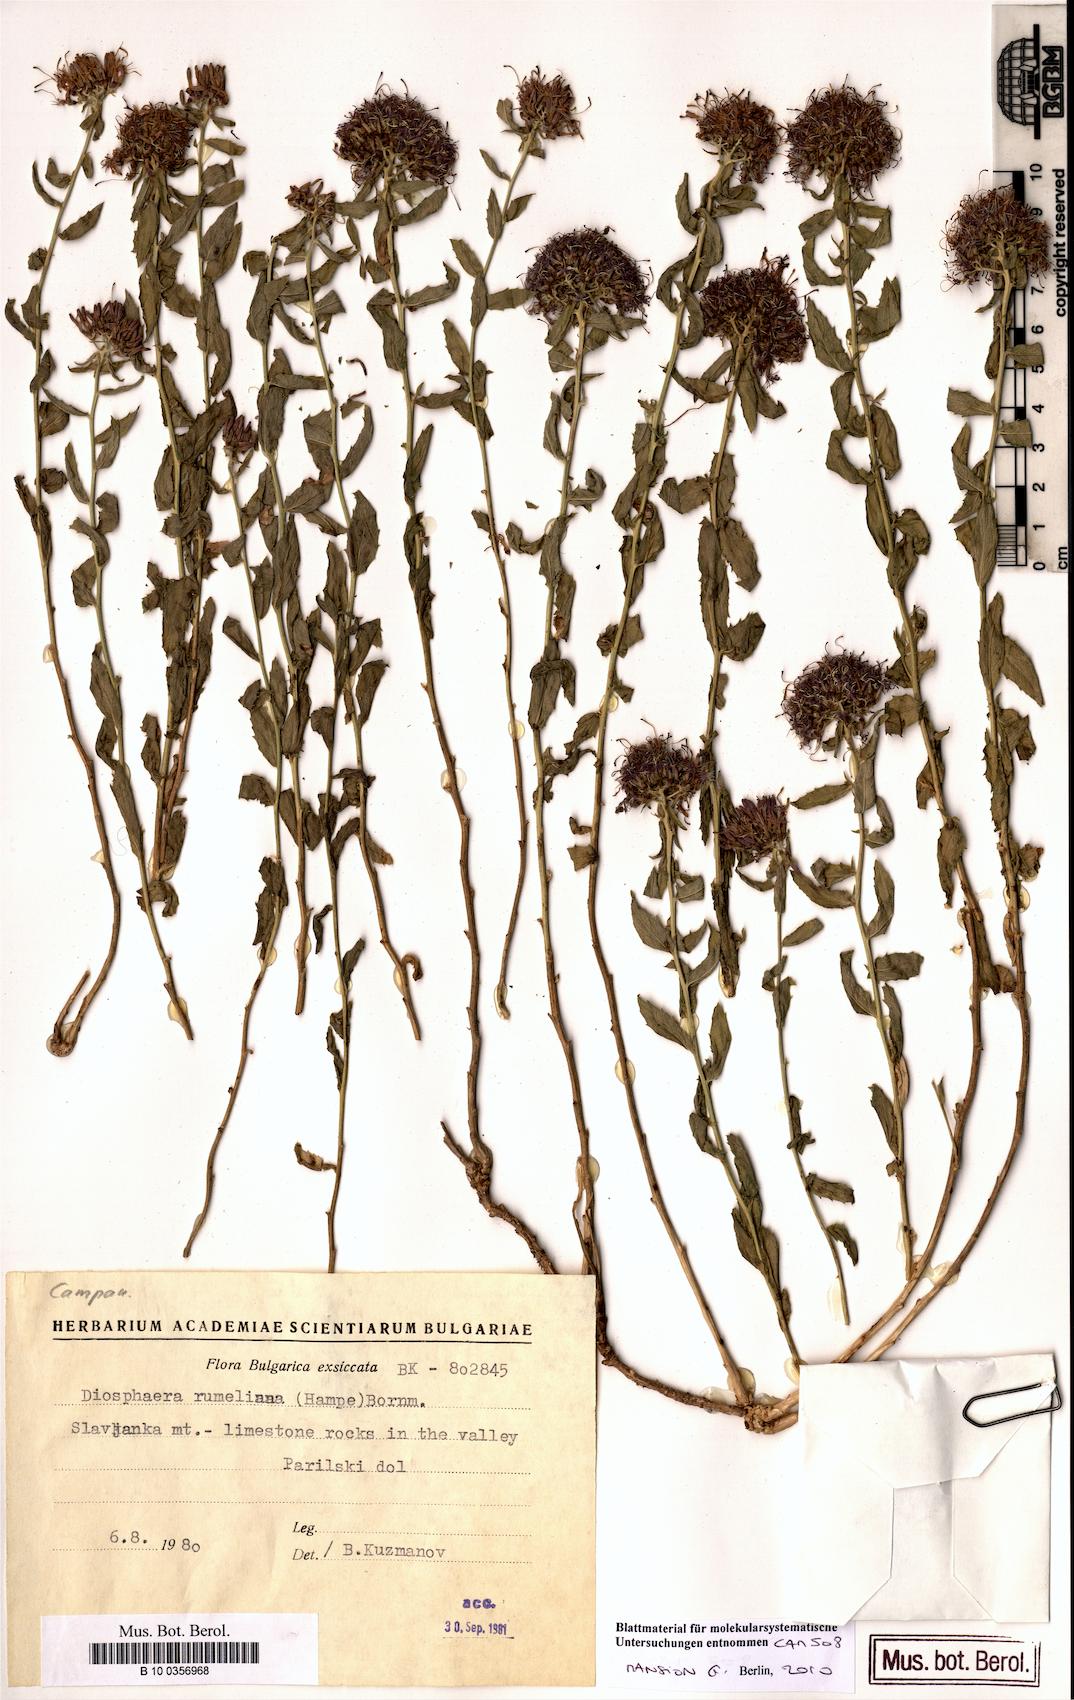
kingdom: Plantae
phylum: Tracheophyta
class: Magnoliopsida
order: Asterales
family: Campanulaceae
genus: Campanula
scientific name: Campanula rumeliana
